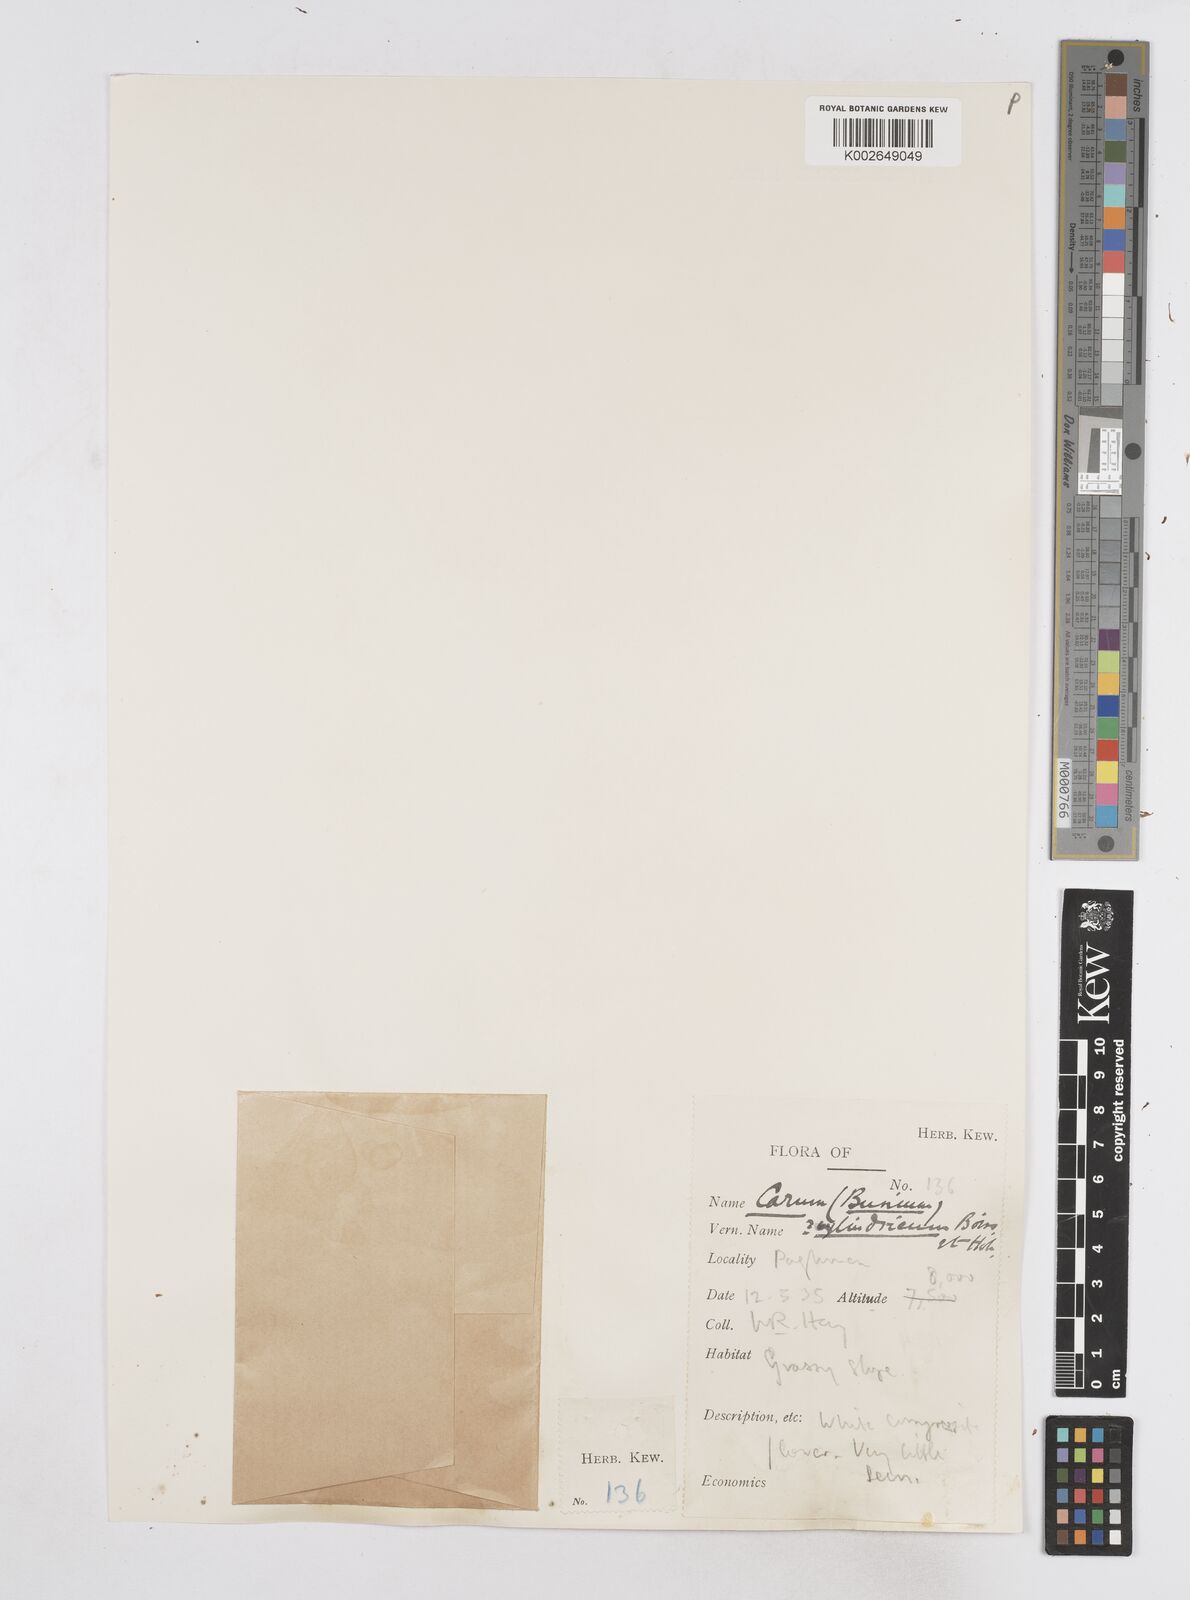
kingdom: Plantae
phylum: Tracheophyta
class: Magnoliopsida
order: Apiales
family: Apiaceae
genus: Elwendia
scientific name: Elwendia cylindrica
